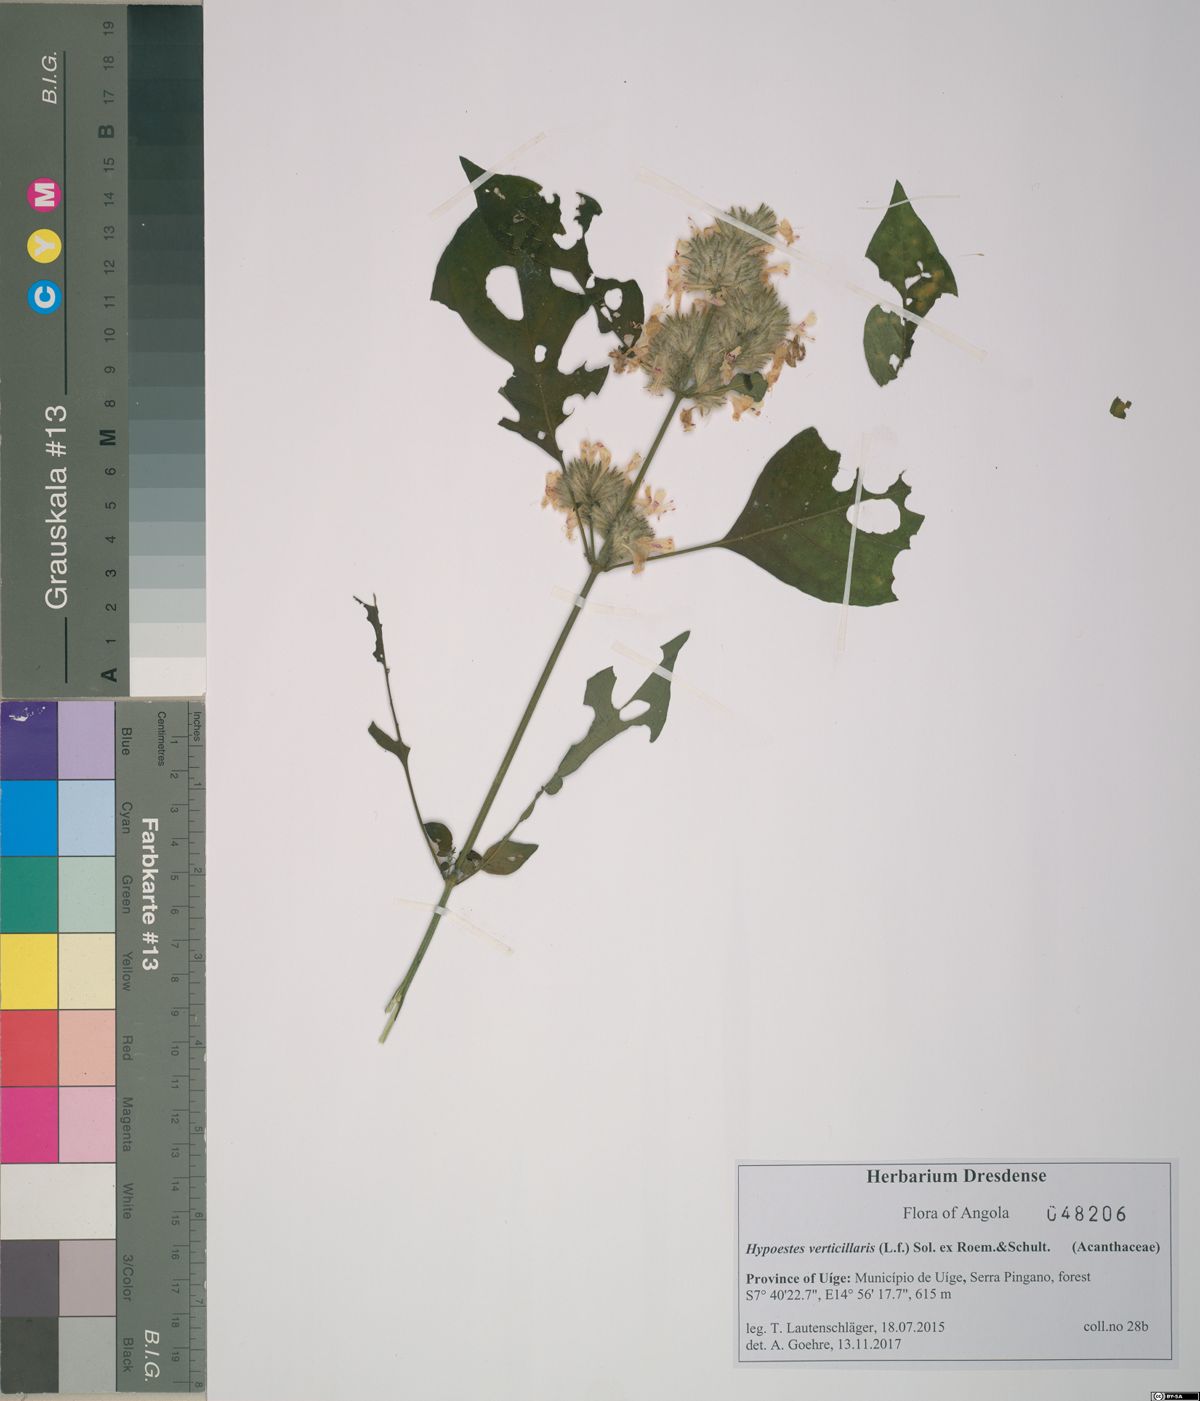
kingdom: Plantae
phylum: Tracheophyta
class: Magnoliopsida
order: Lamiales
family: Acanthaceae
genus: Hypoestes
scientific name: Hypoestes forskaolii
